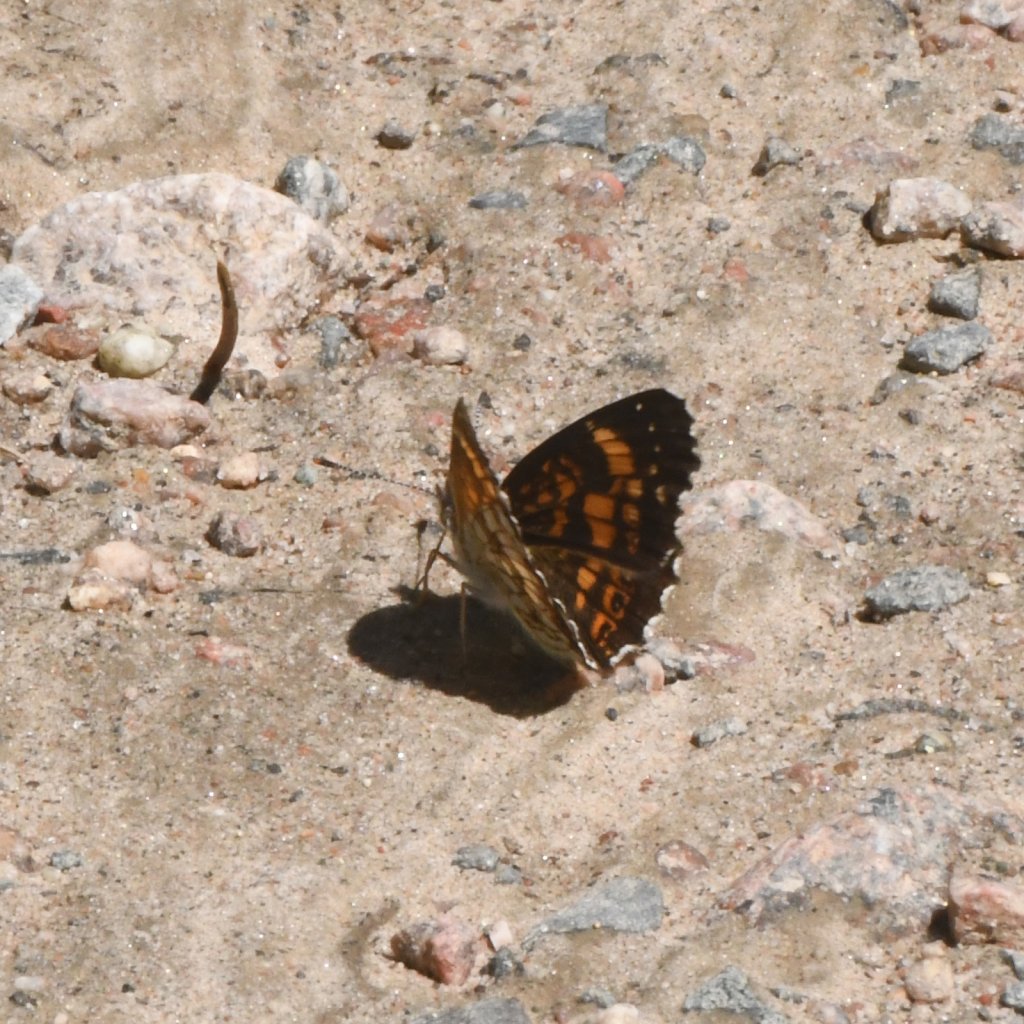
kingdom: Animalia
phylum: Arthropoda
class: Insecta
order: Lepidoptera
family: Nymphalidae
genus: Chlosyne
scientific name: Chlosyne nycteis
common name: Silvery Checkerspot
